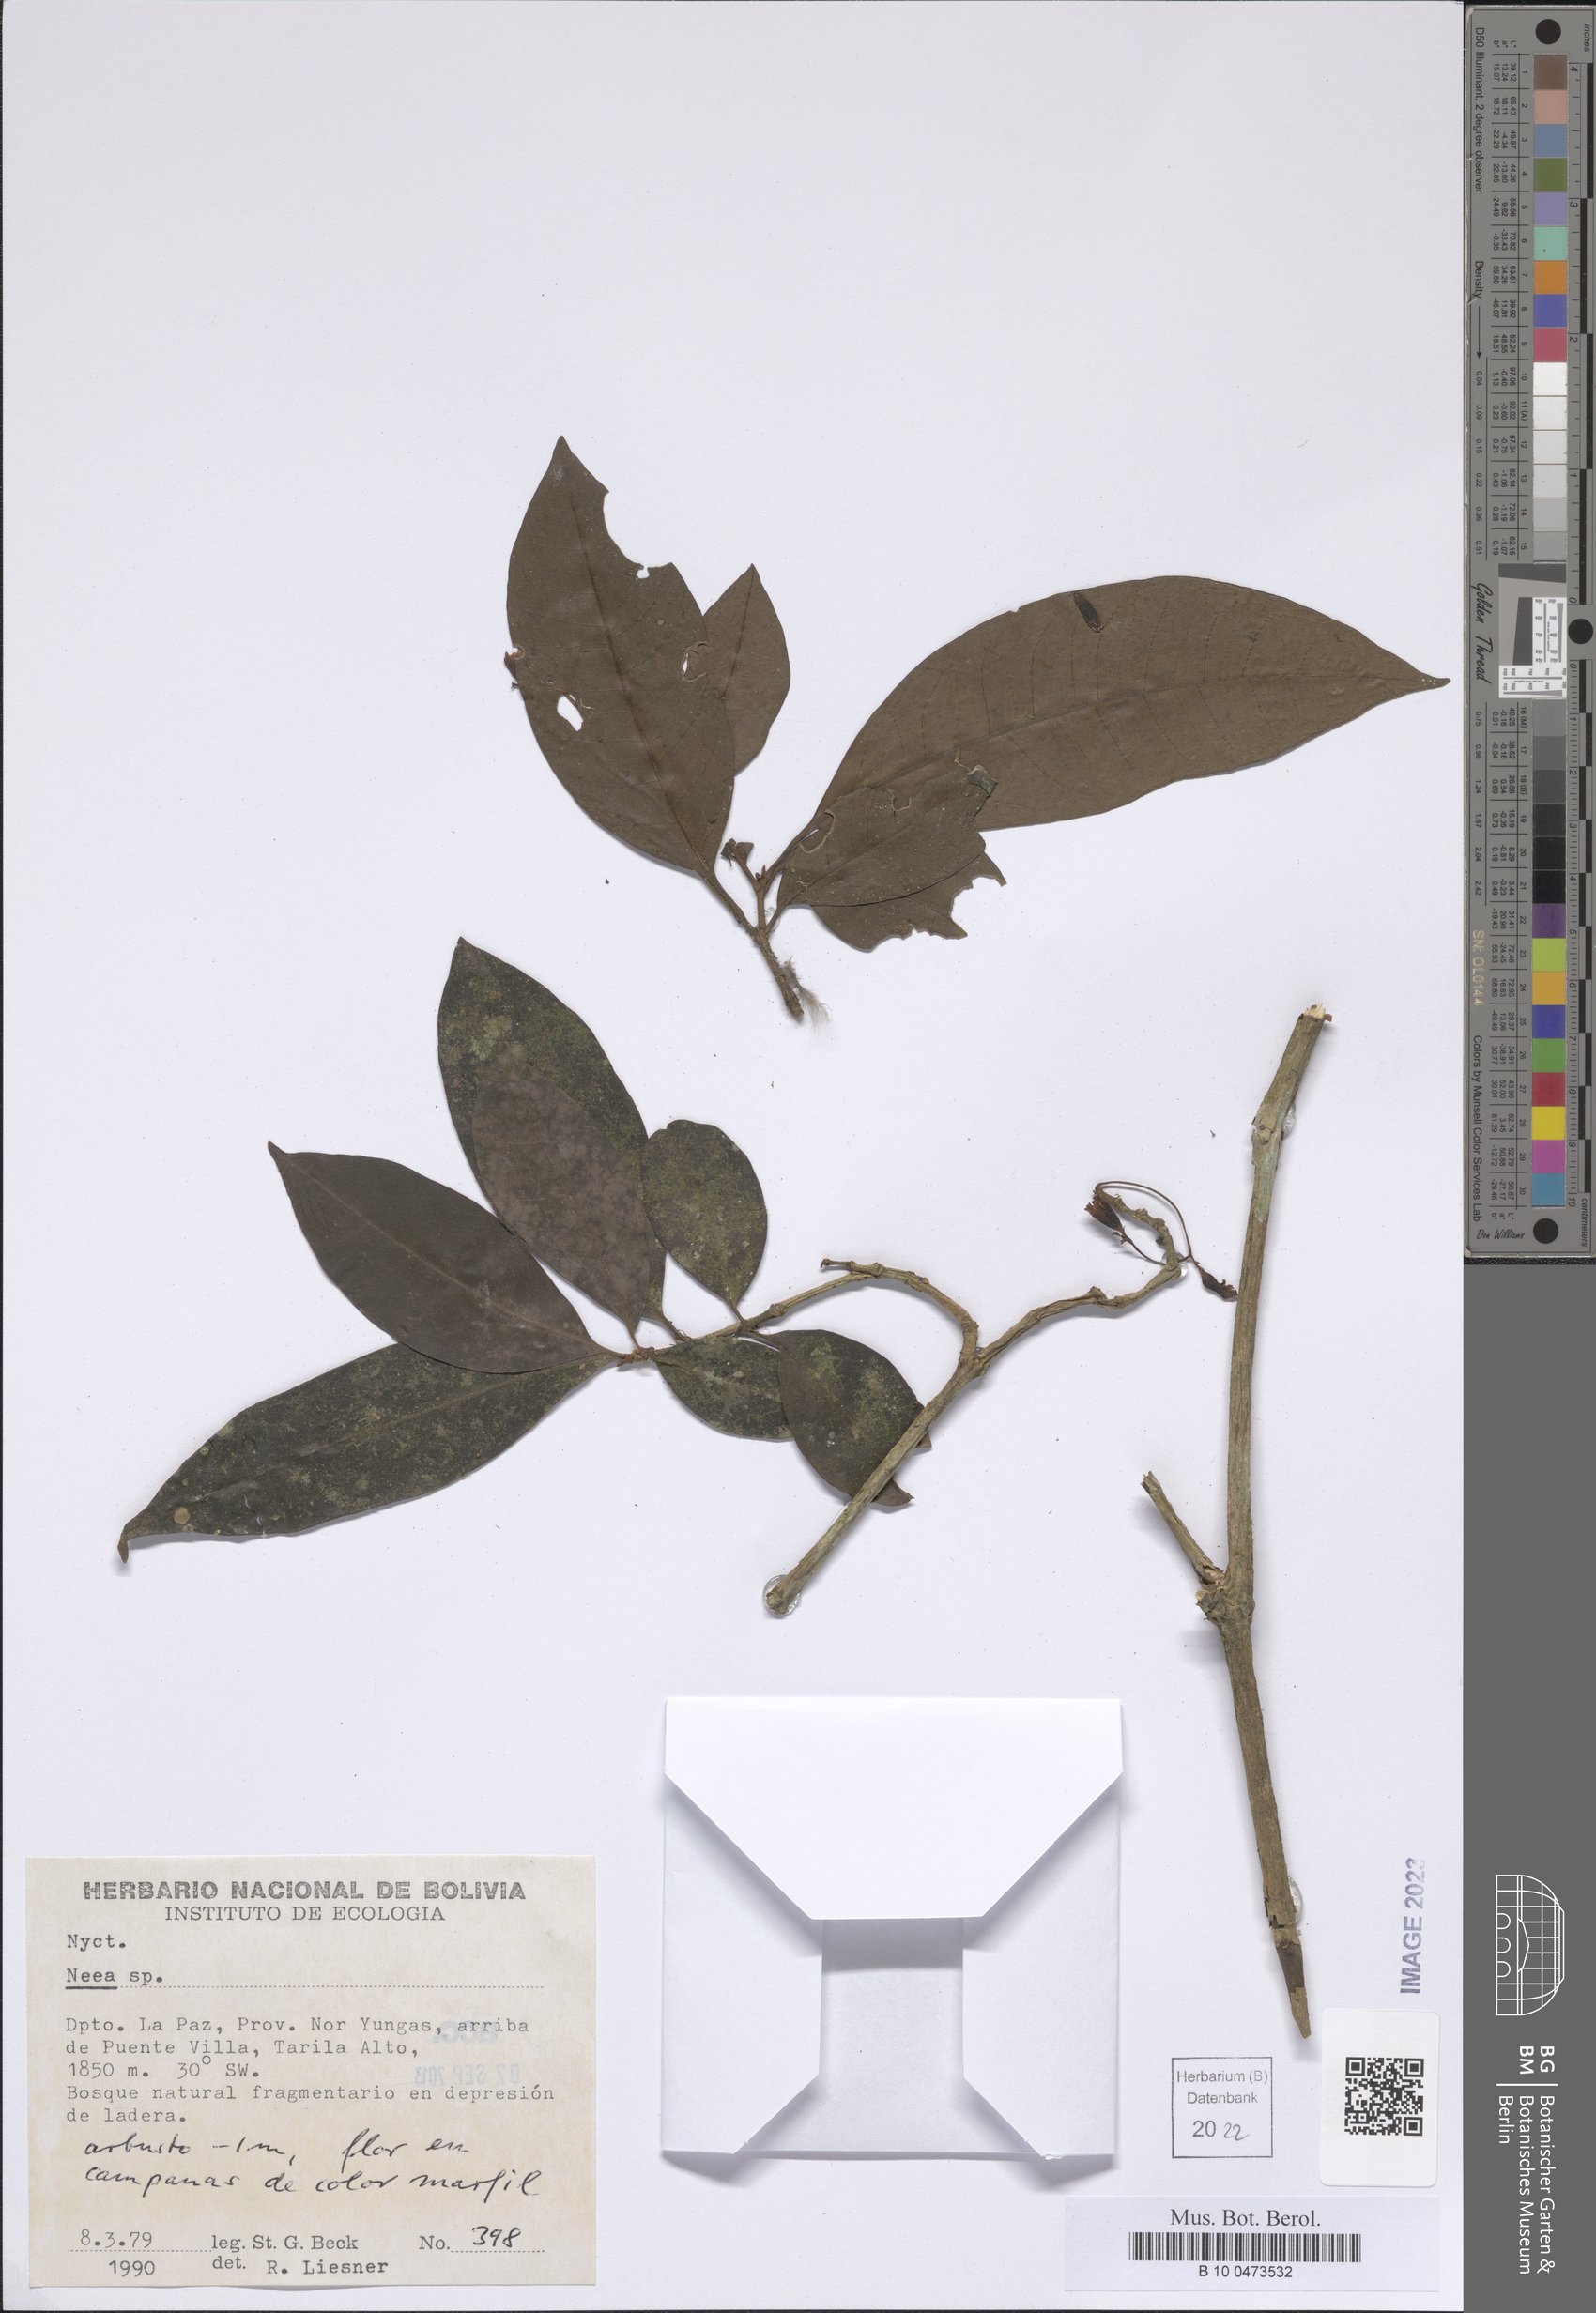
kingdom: Plantae
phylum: Tracheophyta
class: Magnoliopsida
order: Caryophyllales
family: Nyctaginaceae
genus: Neea
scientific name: Neea
